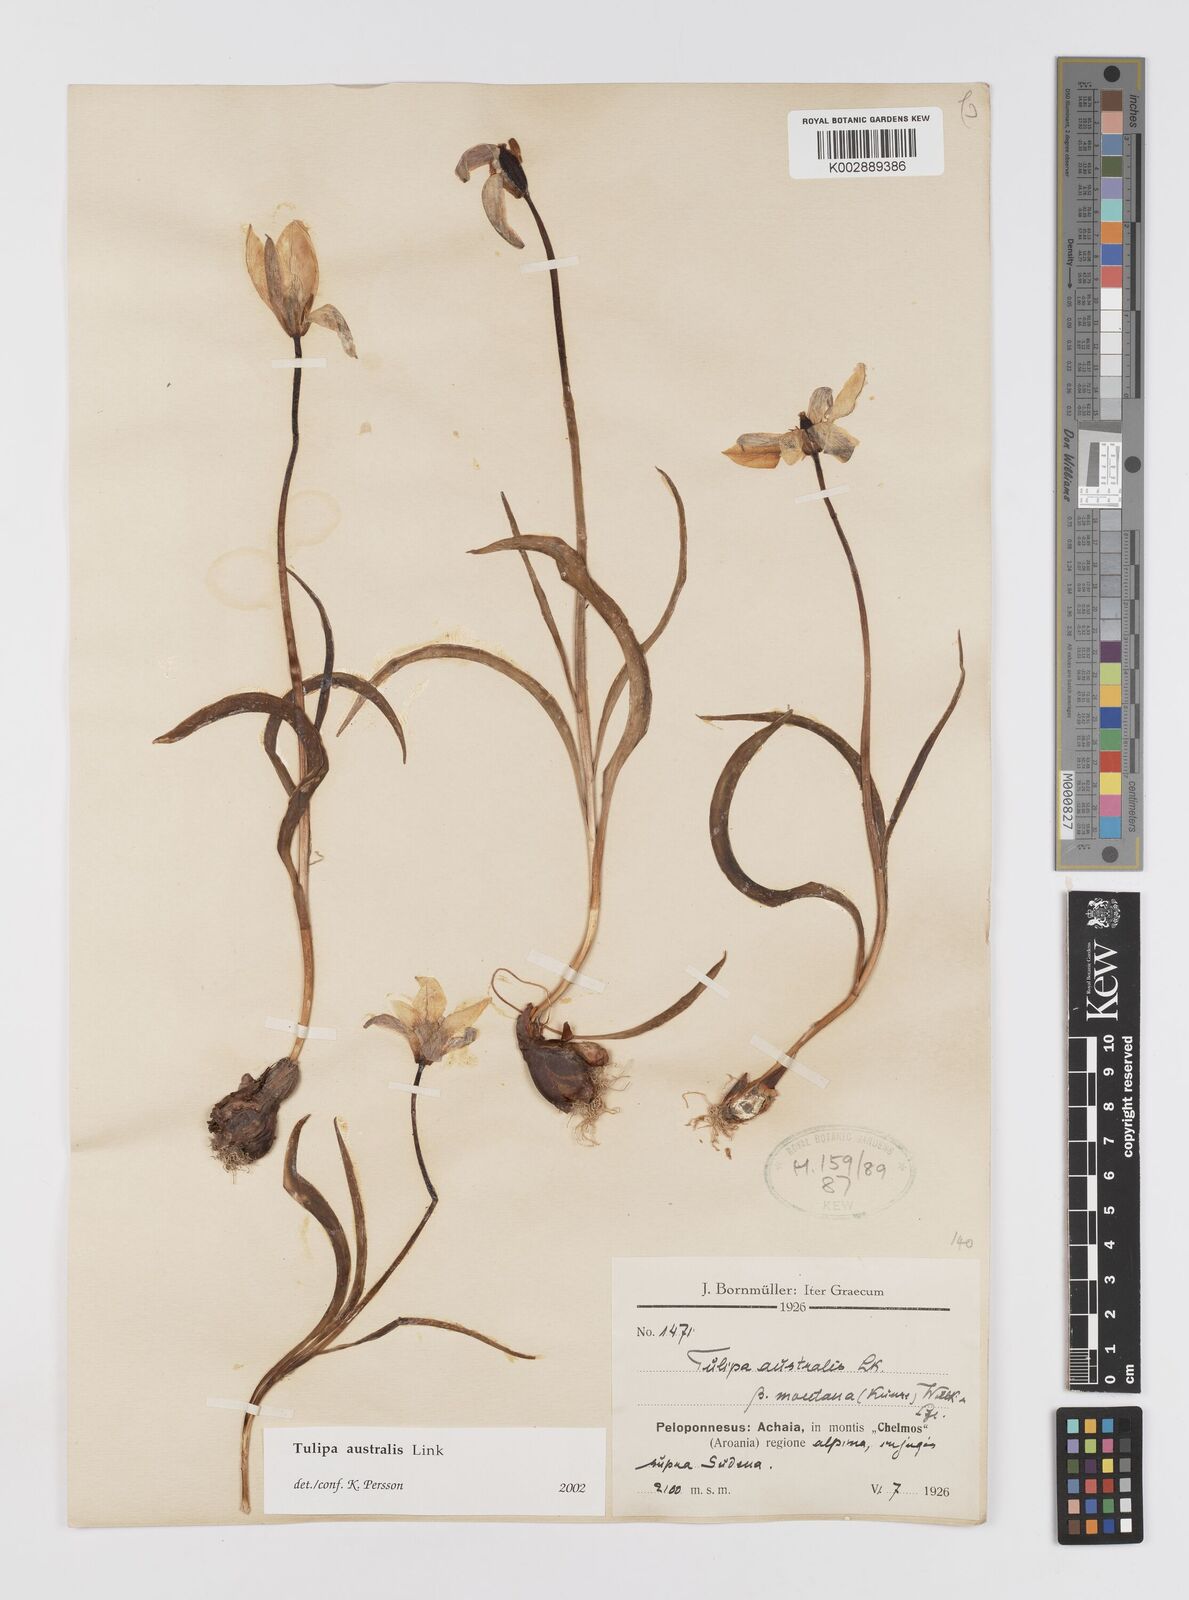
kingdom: Plantae
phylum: Tracheophyta
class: Liliopsida
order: Liliales
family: Liliaceae
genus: Tulipa
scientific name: Tulipa sylvestris
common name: Wild tulip
